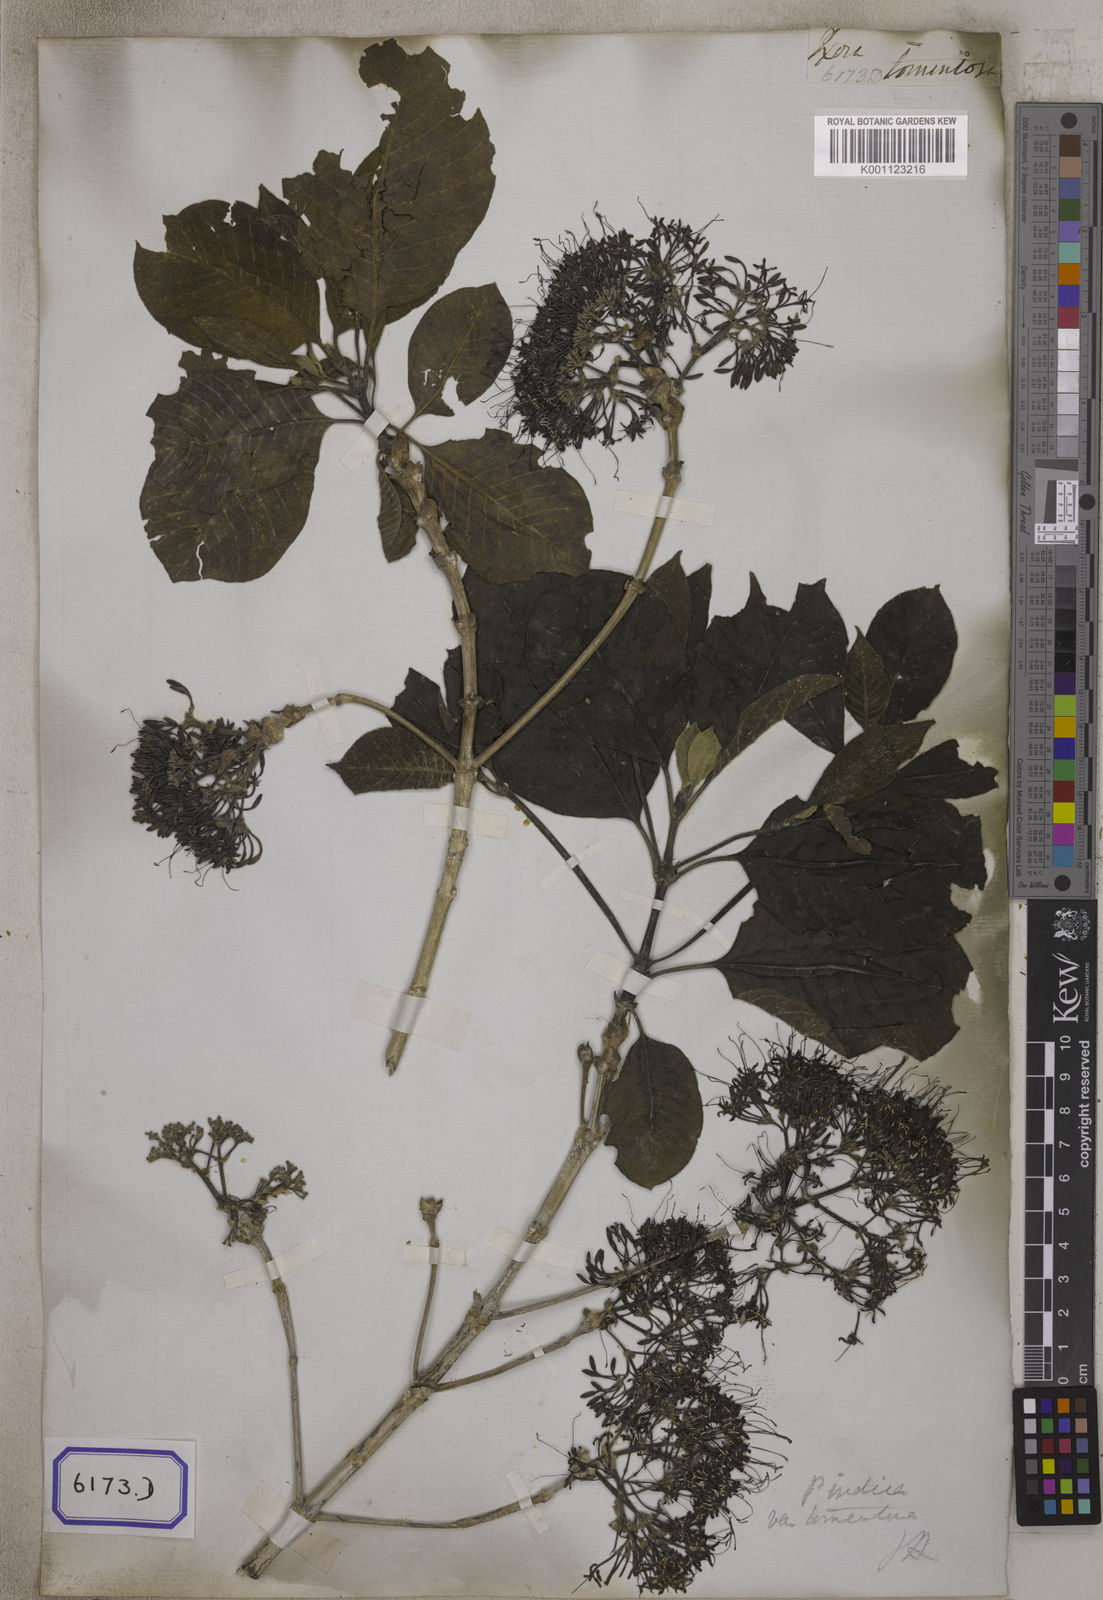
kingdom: Plantae
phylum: Tracheophyta
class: Magnoliopsida
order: Gentianales
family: Rubiaceae
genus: Pavetta
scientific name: Pavetta tomentosa
